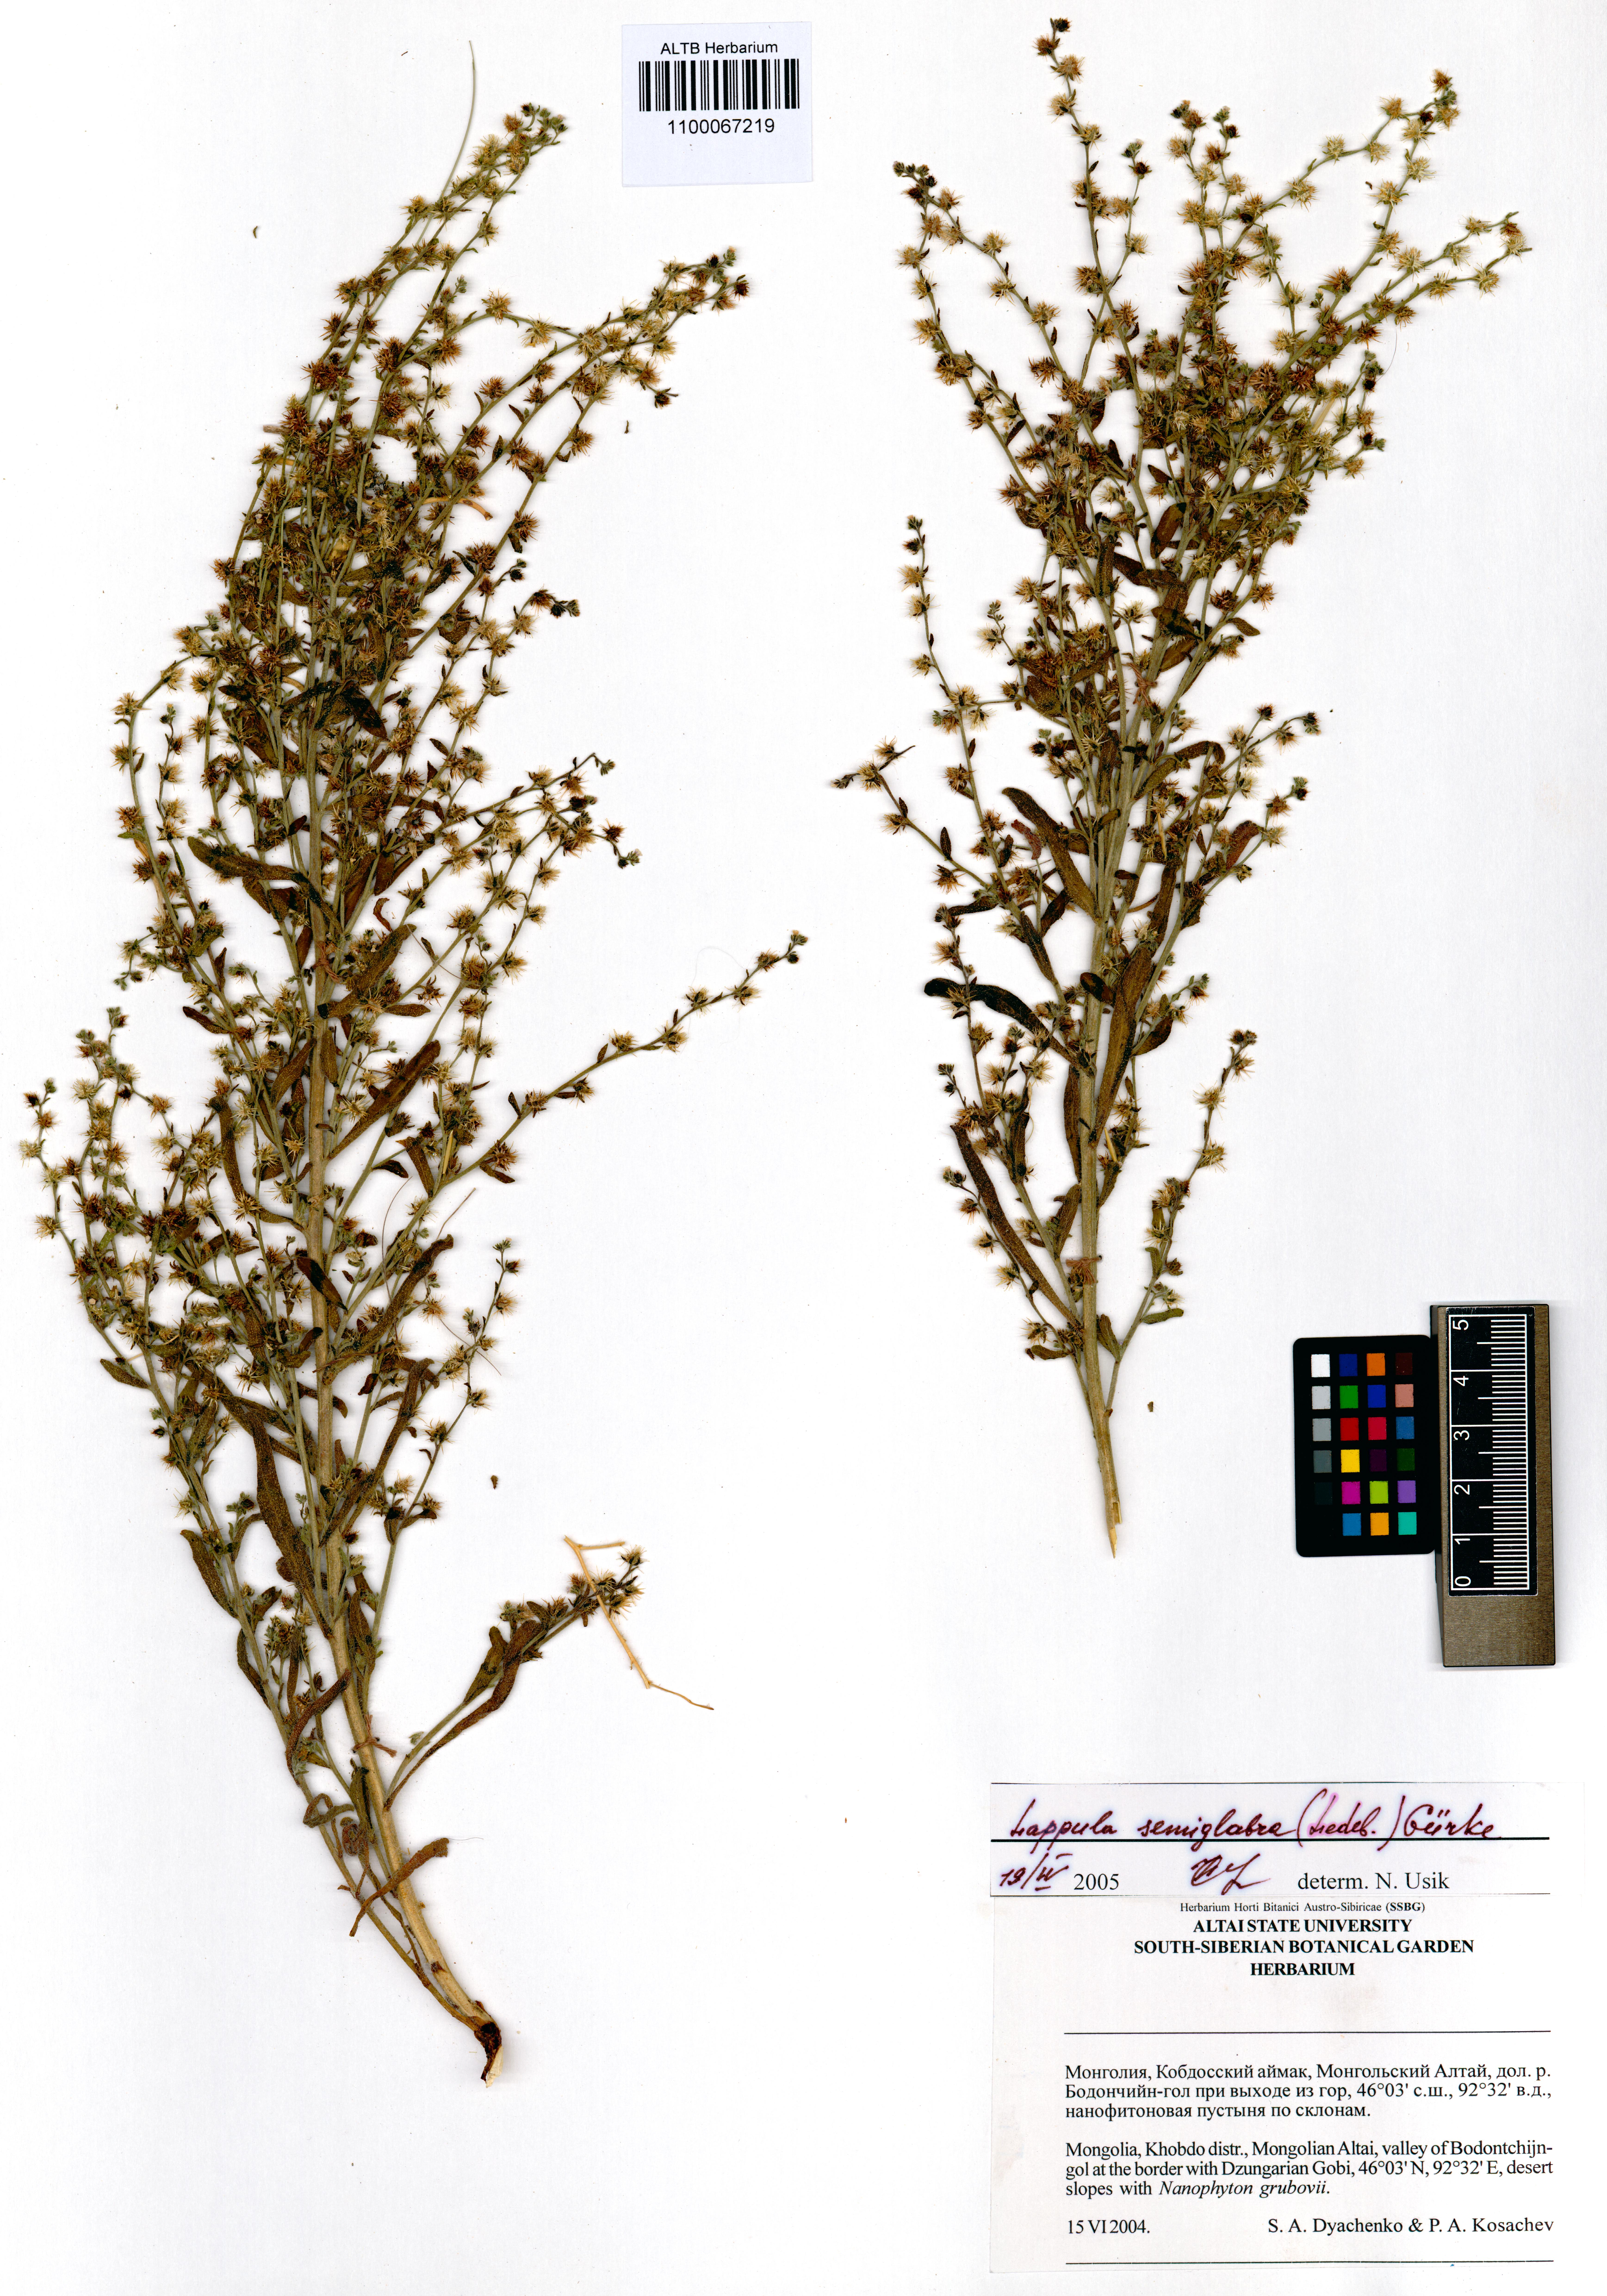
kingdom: Plantae
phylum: Tracheophyta
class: Magnoliopsida
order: Boraginales
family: Boraginaceae
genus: Lappula
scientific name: Lappula patula
